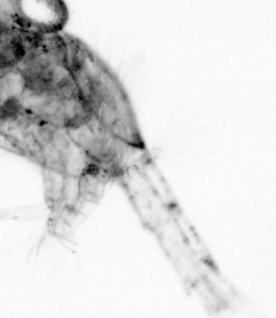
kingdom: Animalia
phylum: Arthropoda
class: Maxillopoda
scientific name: Maxillopoda
